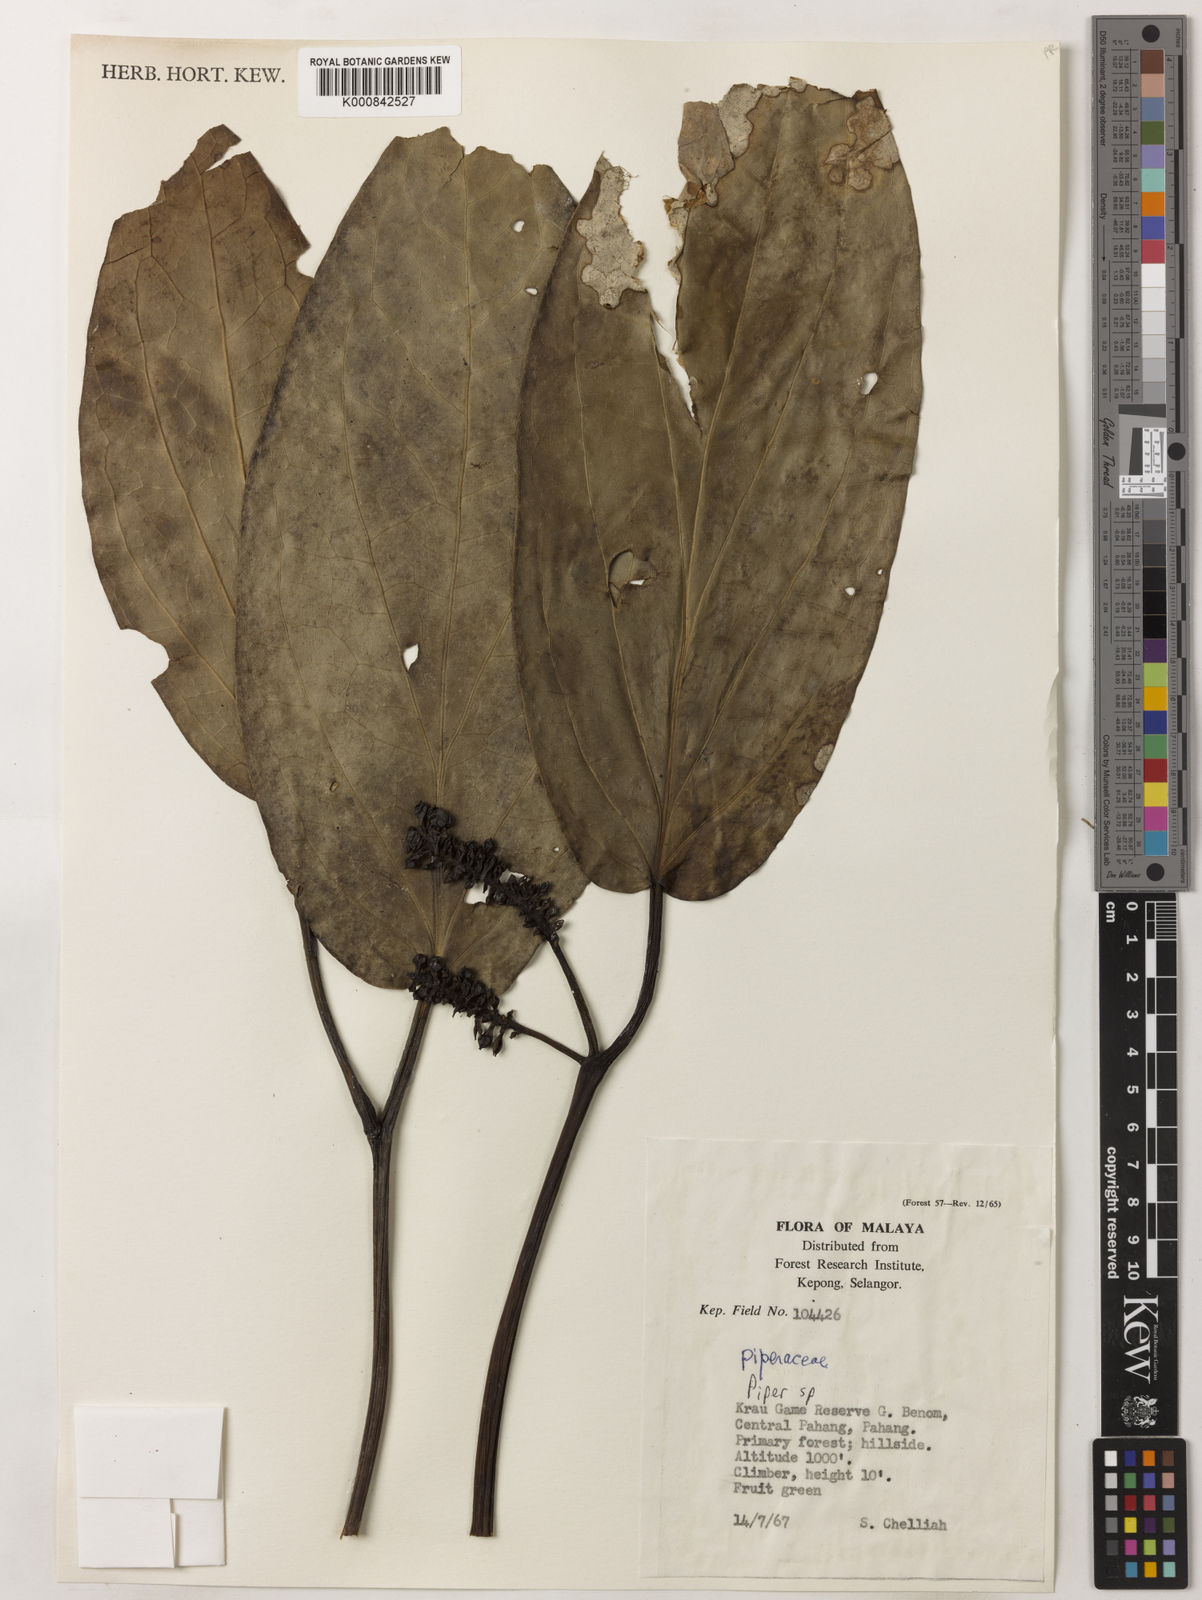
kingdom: Plantae
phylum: Tracheophyta
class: Magnoliopsida
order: Piperales
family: Piperaceae
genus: Piper
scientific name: Piper
